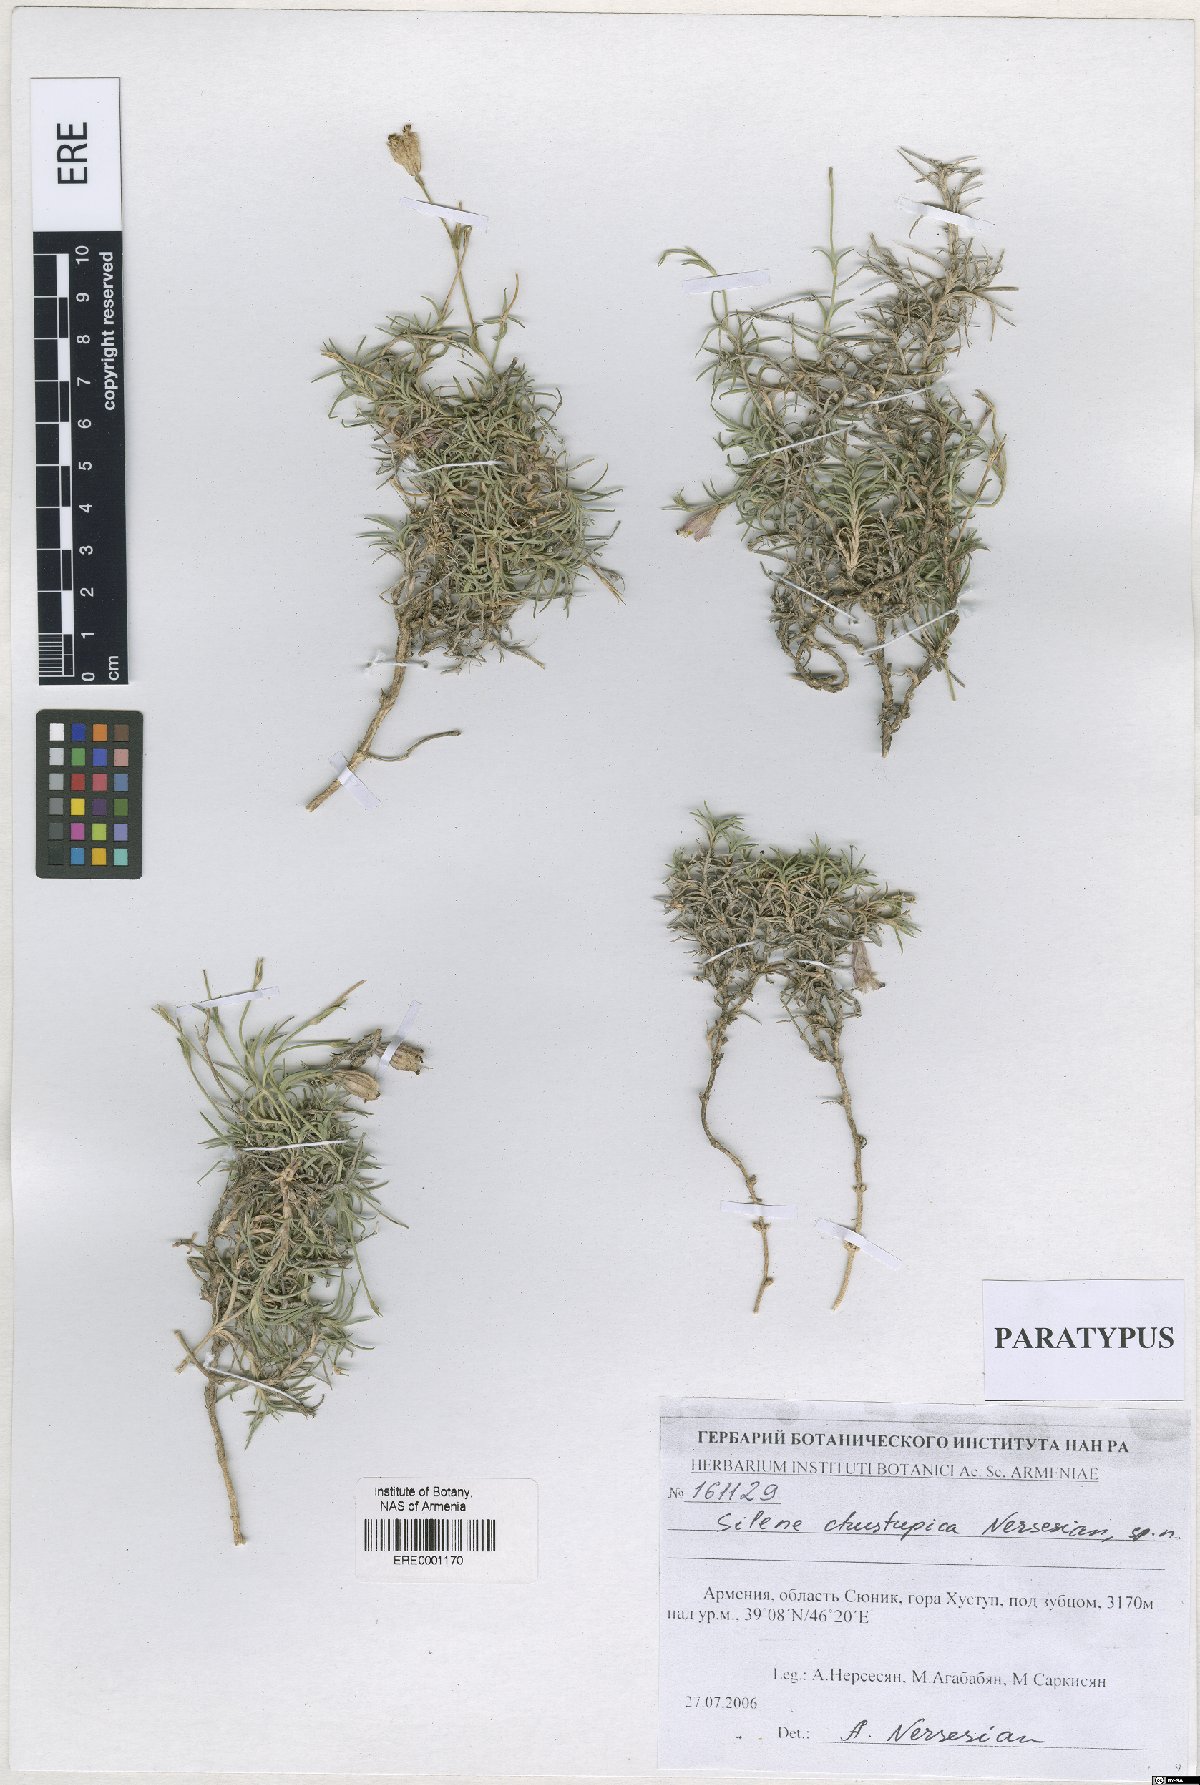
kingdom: Plantae
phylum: Tracheophyta
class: Magnoliopsida
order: Caryophyllales
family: Caryophyllaceae
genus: Silene
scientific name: Silene pungens
